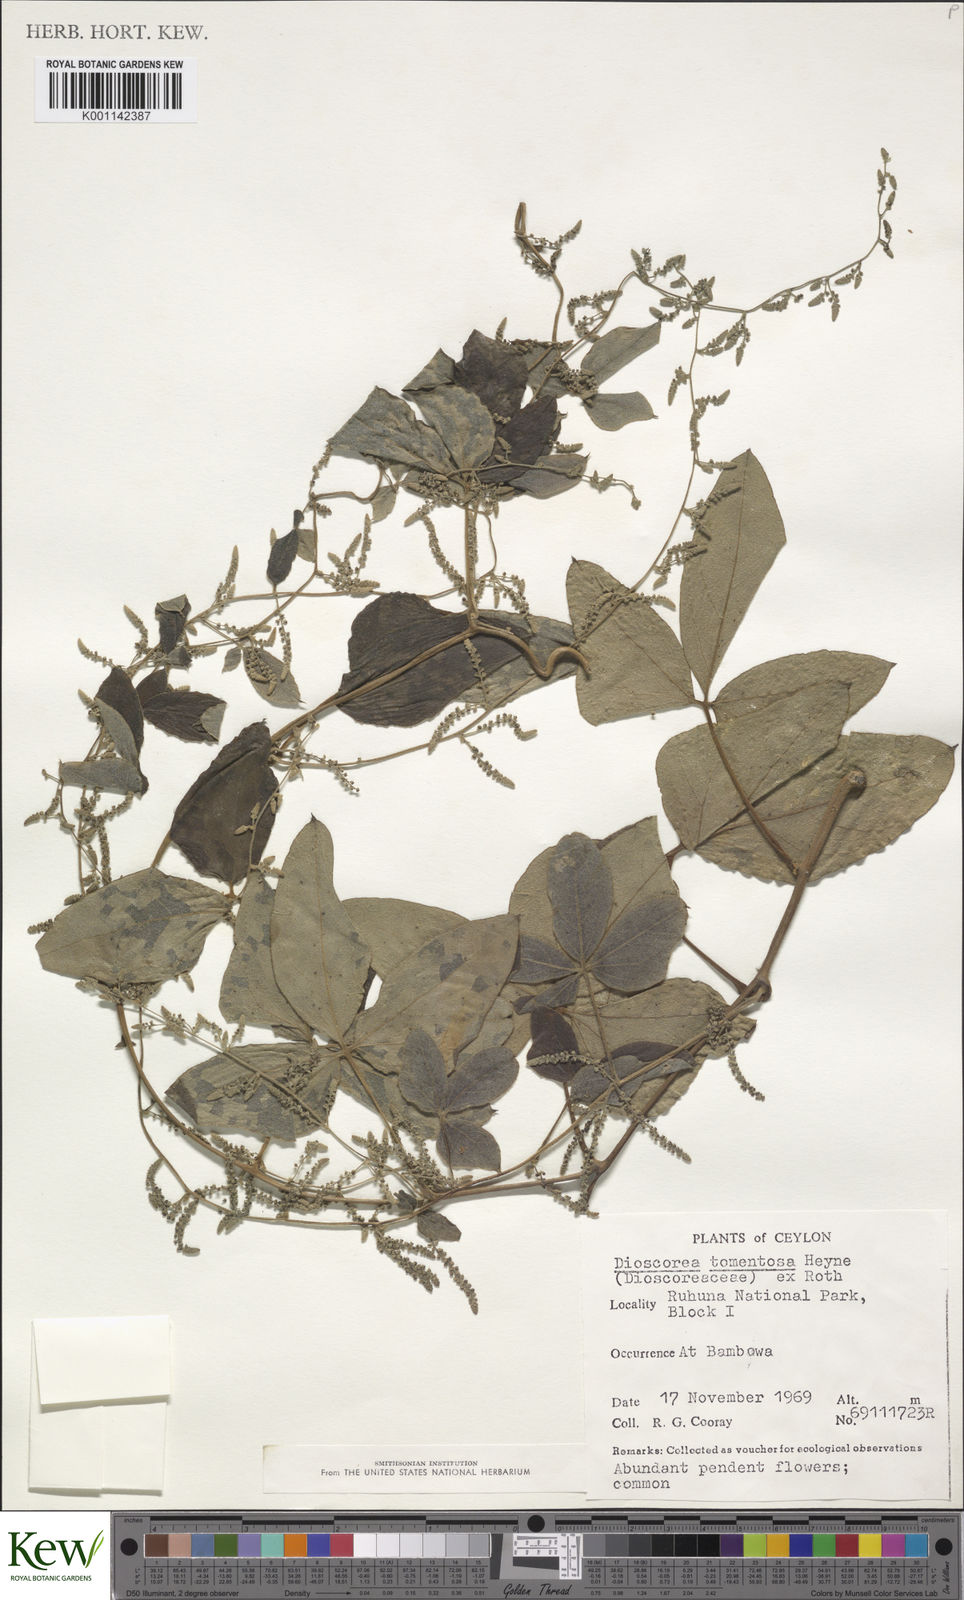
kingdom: Plantae
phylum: Tracheophyta
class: Liliopsida
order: Dioscoreales
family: Dioscoreaceae
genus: Dioscorea
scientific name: Dioscorea
